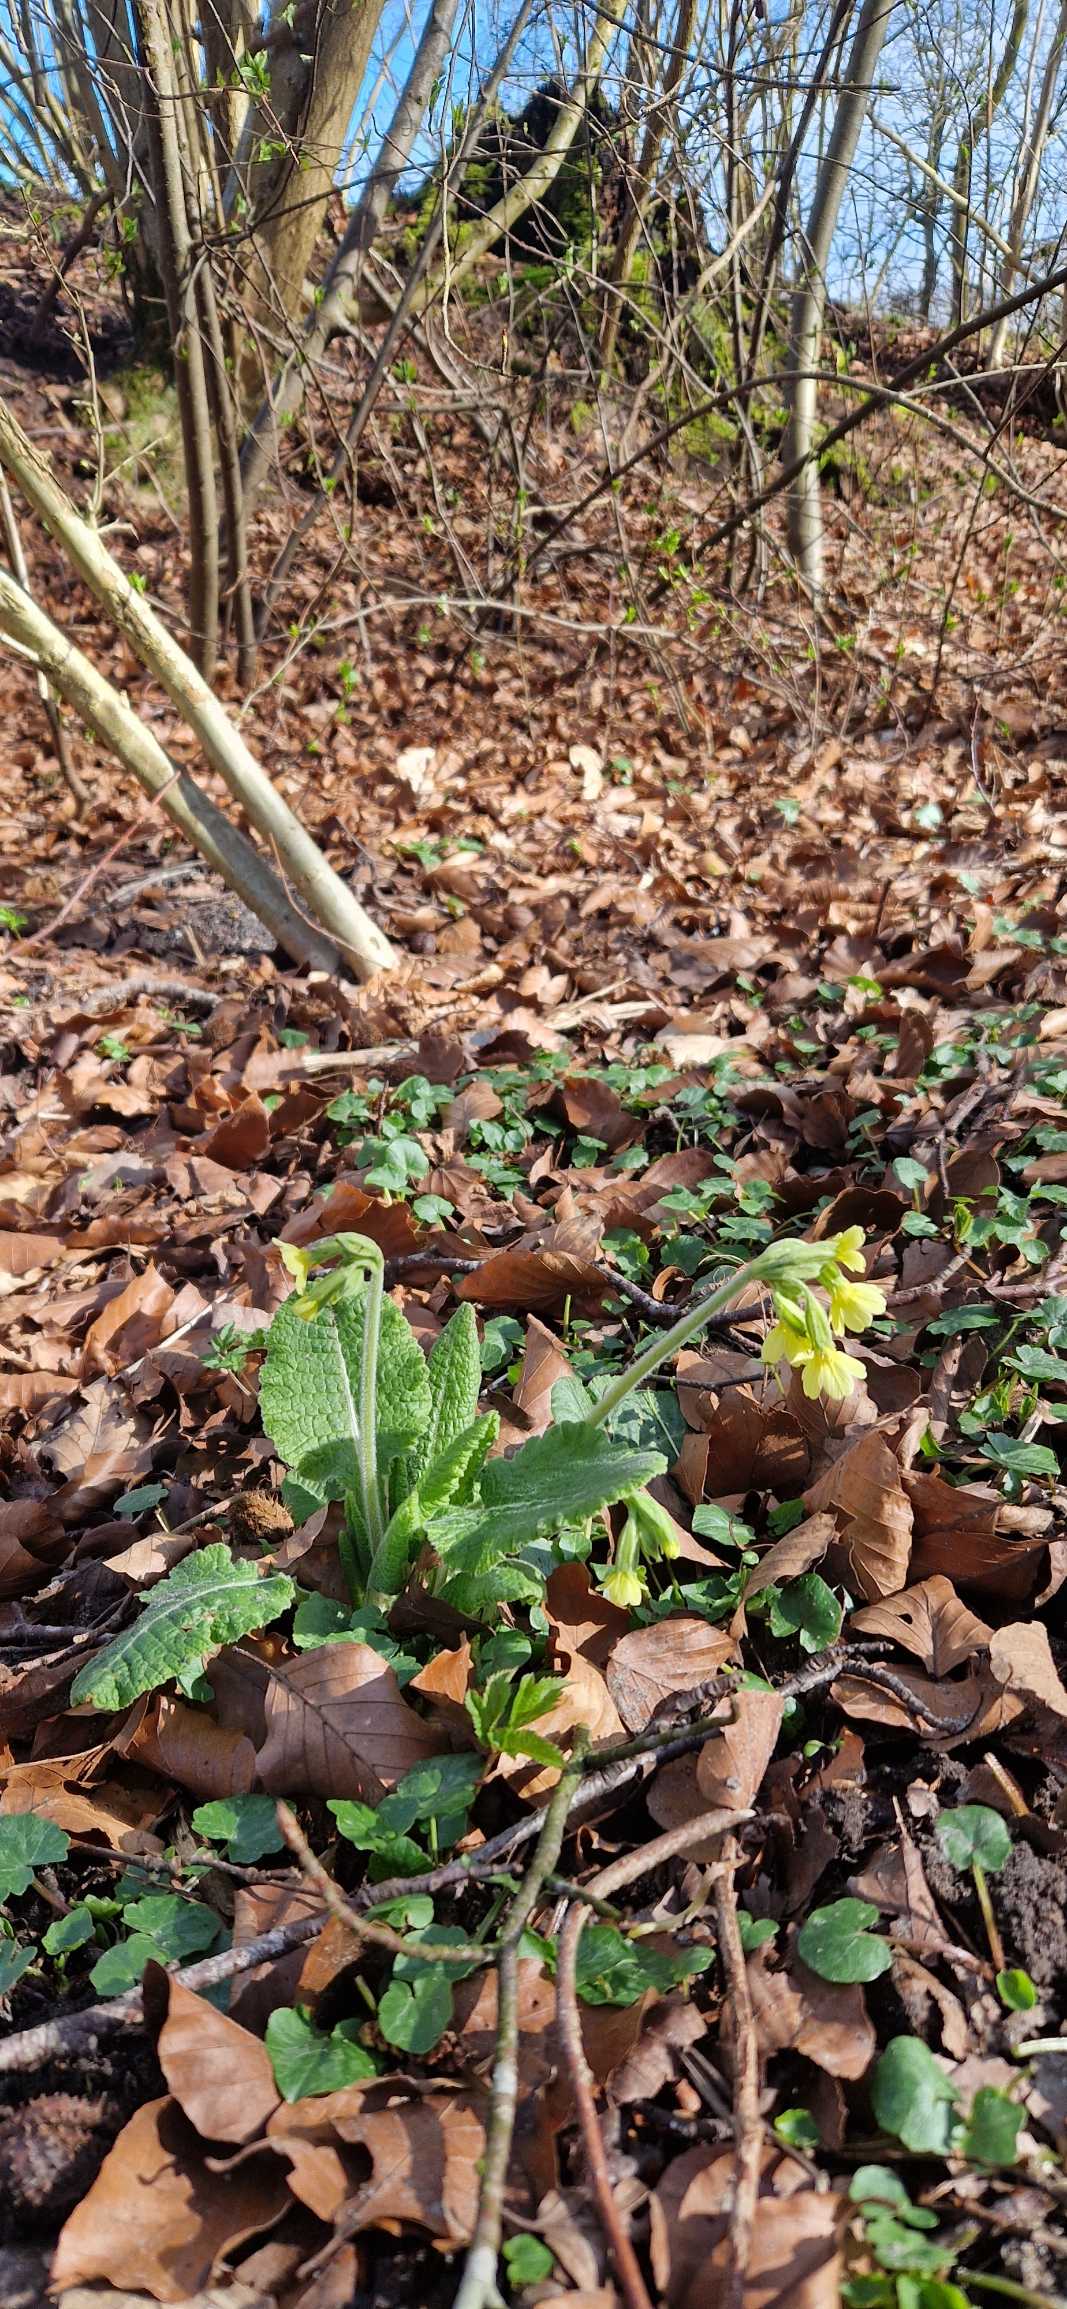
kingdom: Plantae
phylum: Tracheophyta
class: Magnoliopsida
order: Ericales
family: Primulaceae
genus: Primula
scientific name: Primula elatior
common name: Fladkravet kodriver
